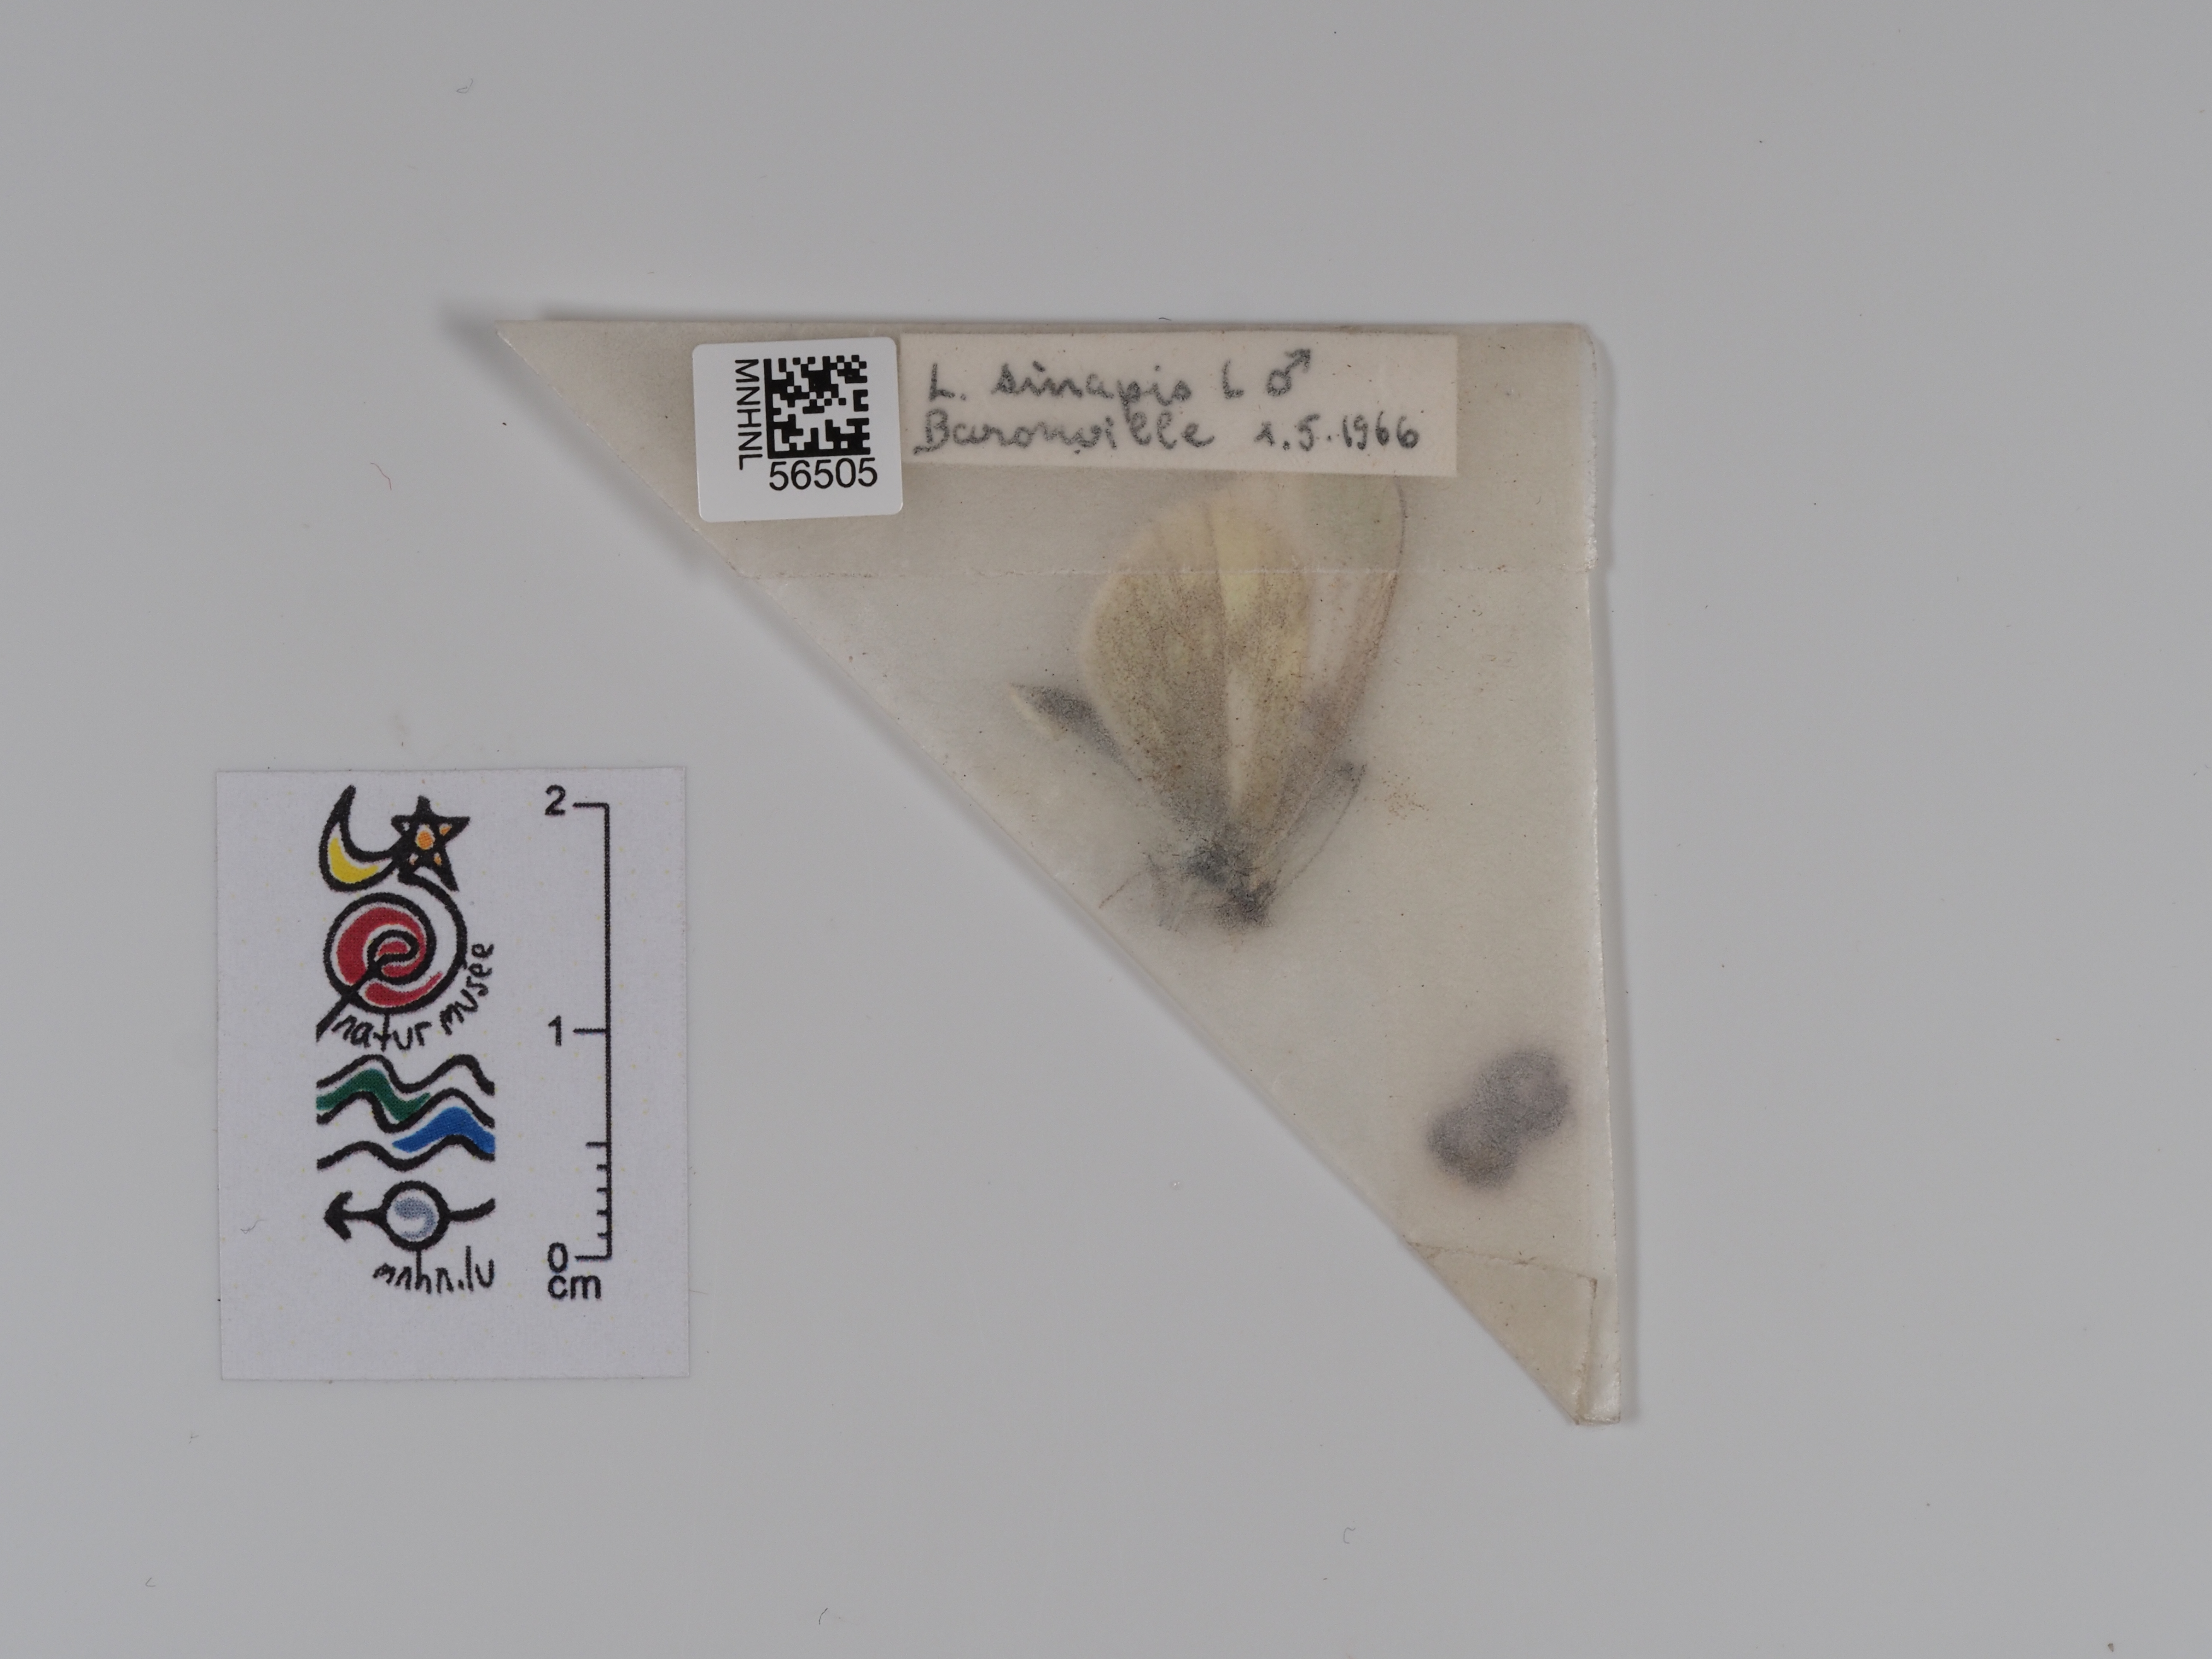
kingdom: Animalia
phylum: Arthropoda
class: Insecta
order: Lepidoptera
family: Pieridae
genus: Leptidea
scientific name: Leptidea sinapis
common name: Wood white
